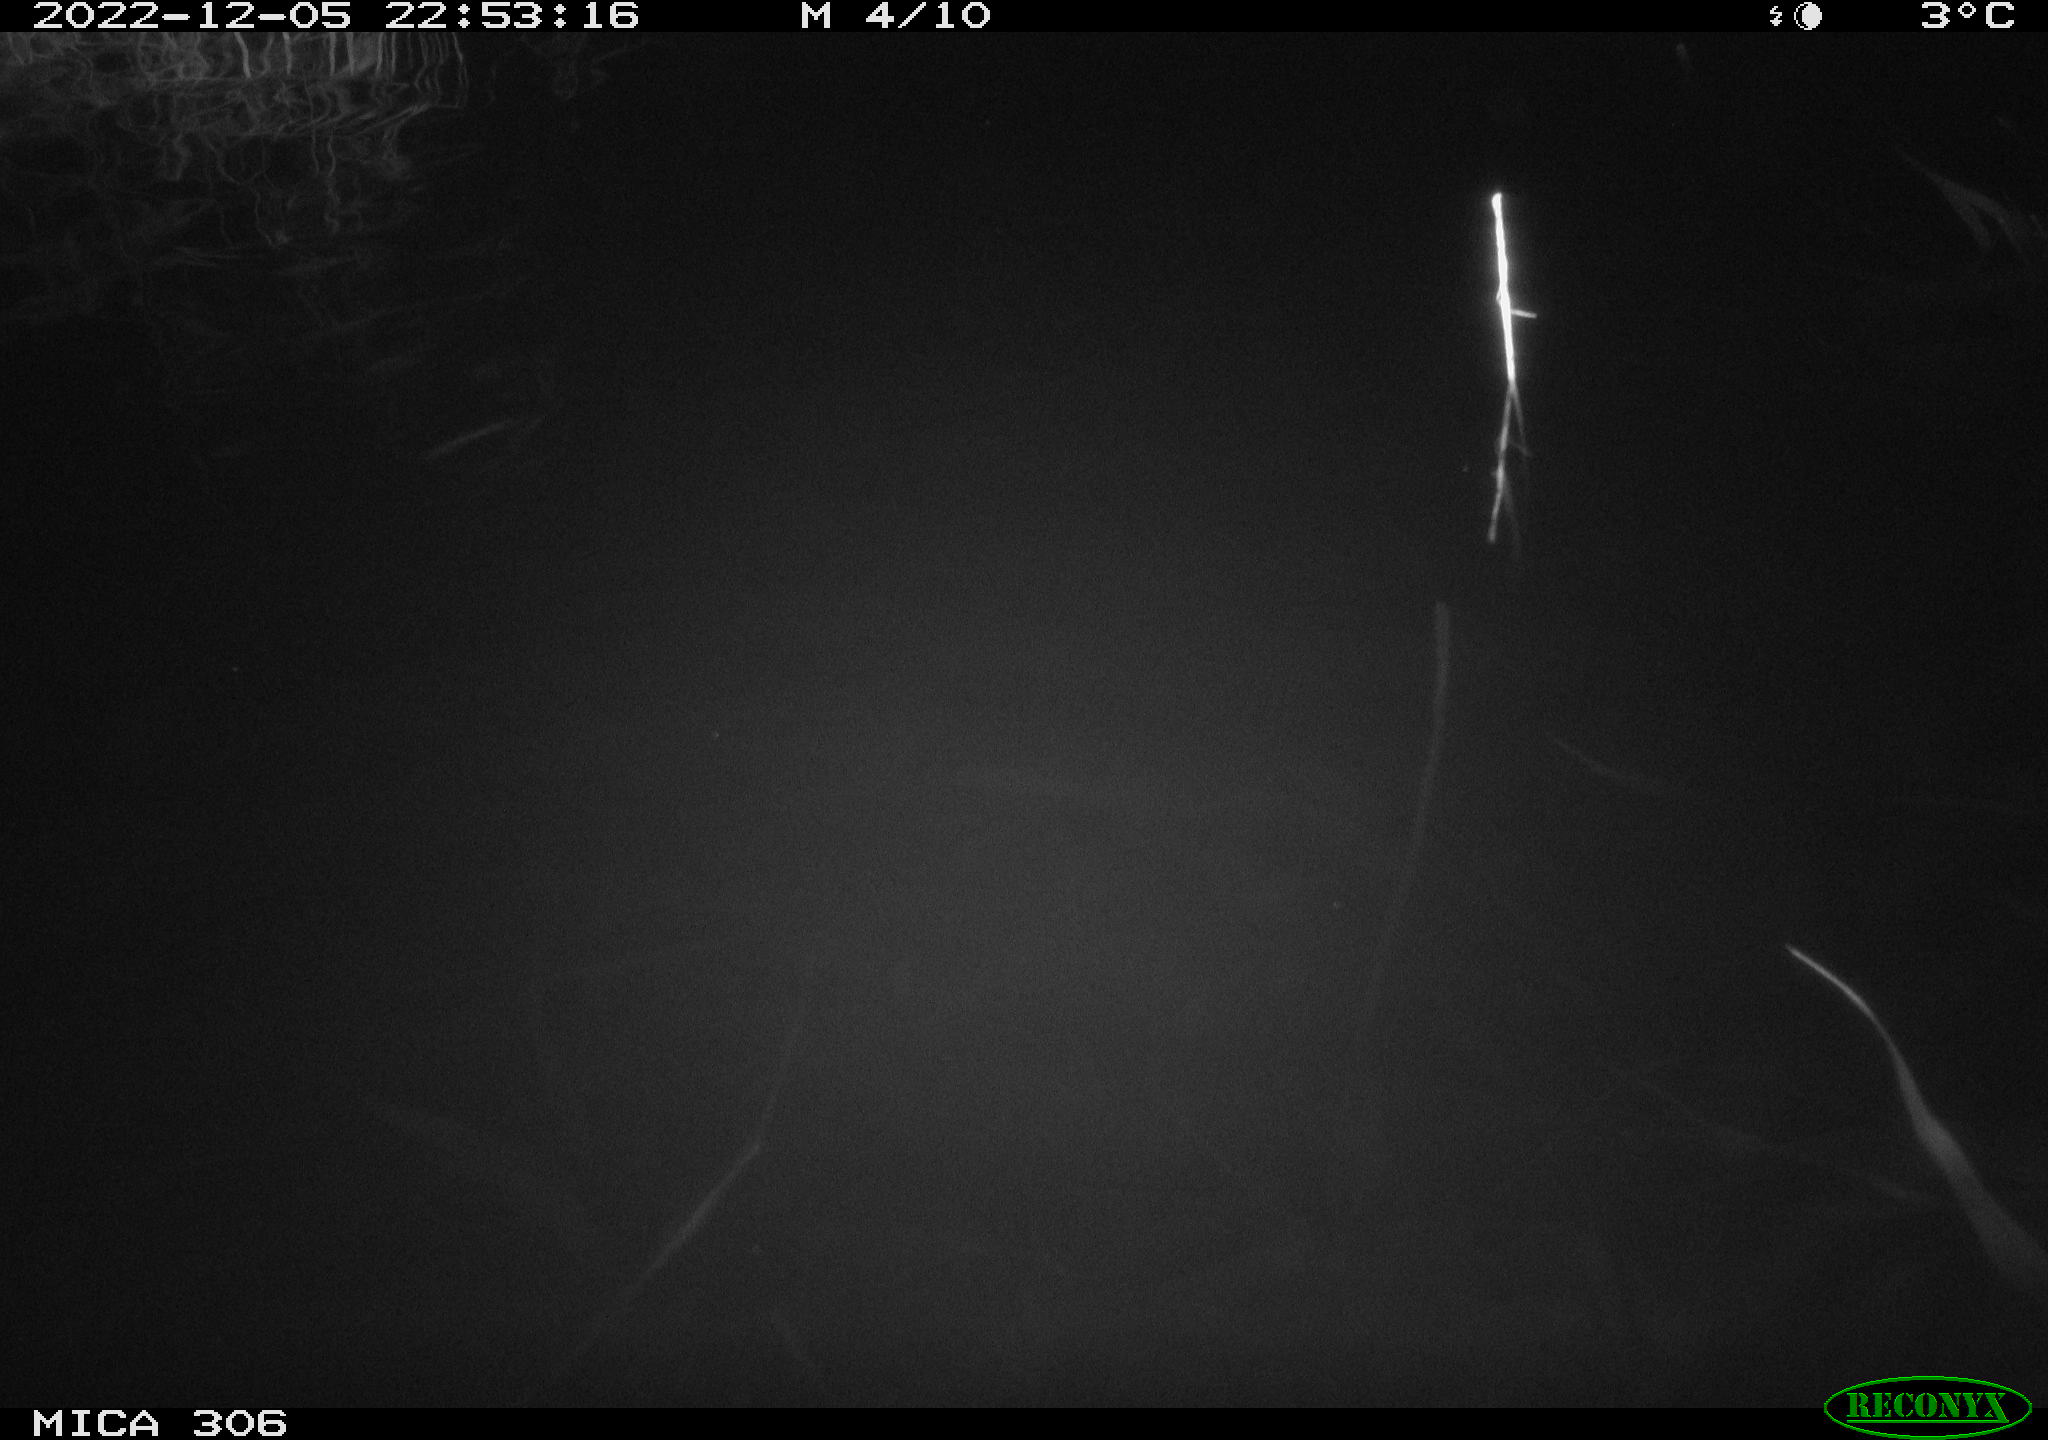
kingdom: Animalia
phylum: Chordata
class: Mammalia
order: Rodentia
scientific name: Rodentia
